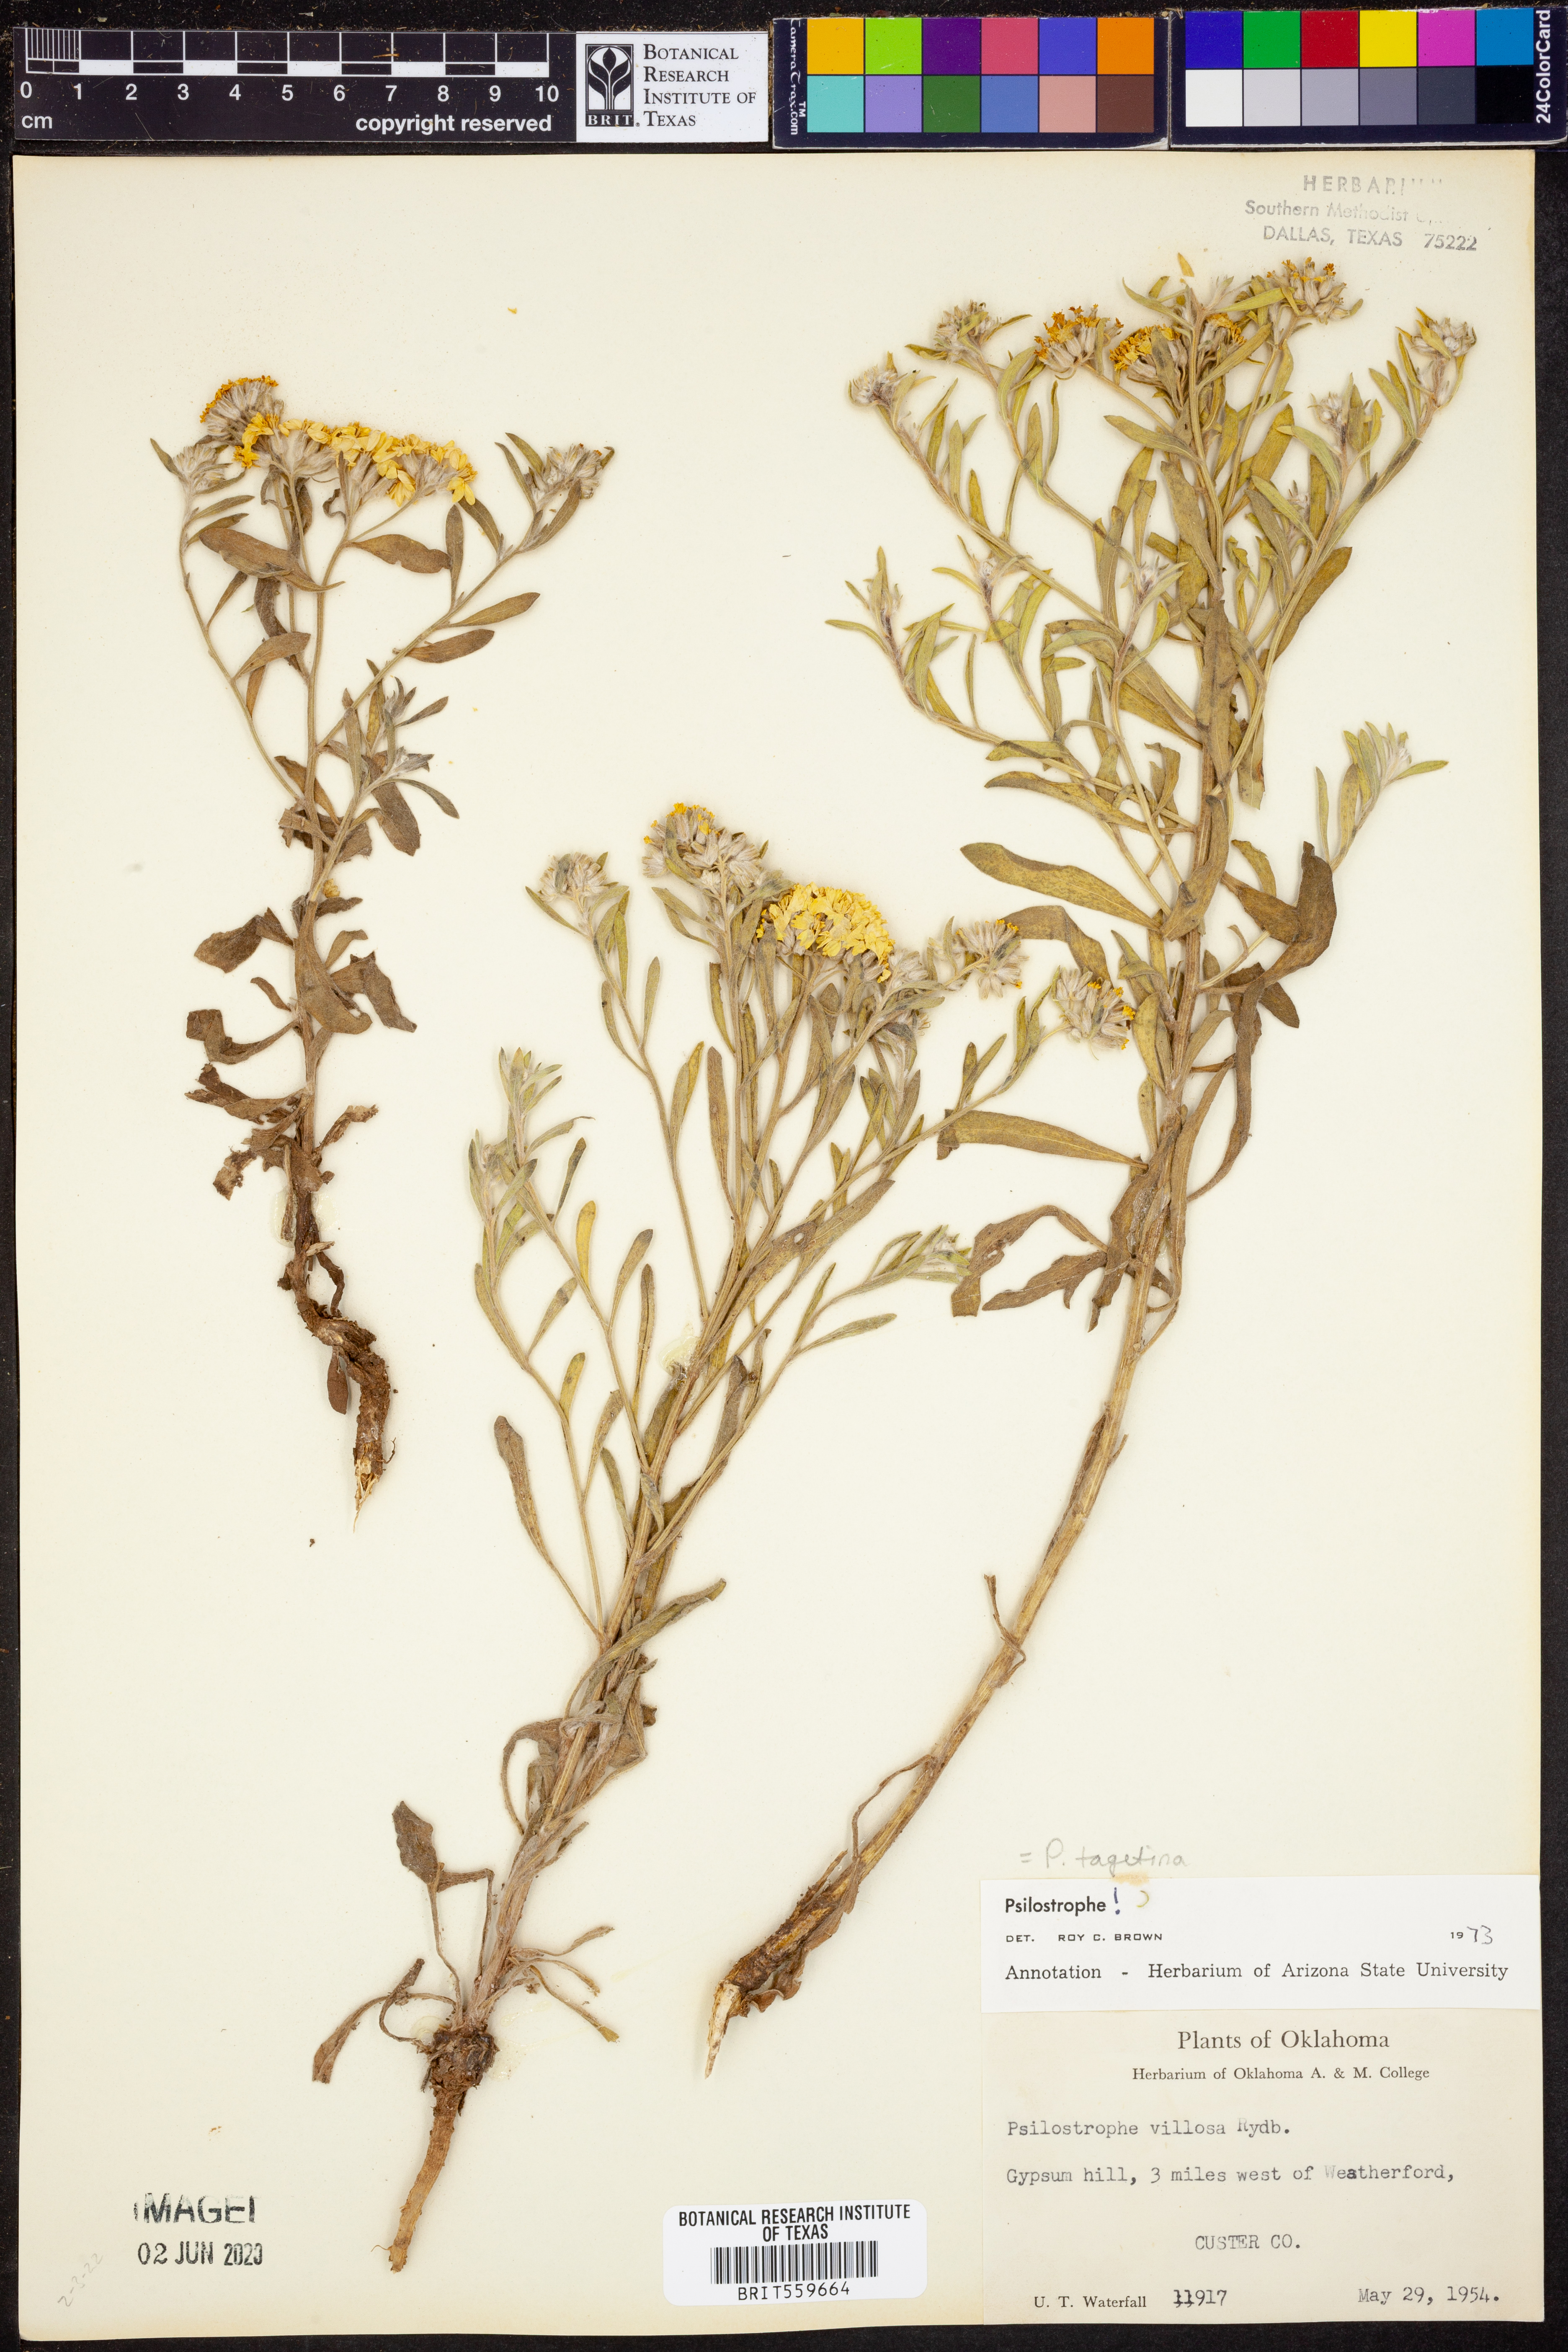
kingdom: Plantae
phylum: Tracheophyta
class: Magnoliopsida
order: Asterales
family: Asteraceae
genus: Psilostrophe
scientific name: Psilostrophe villosa
